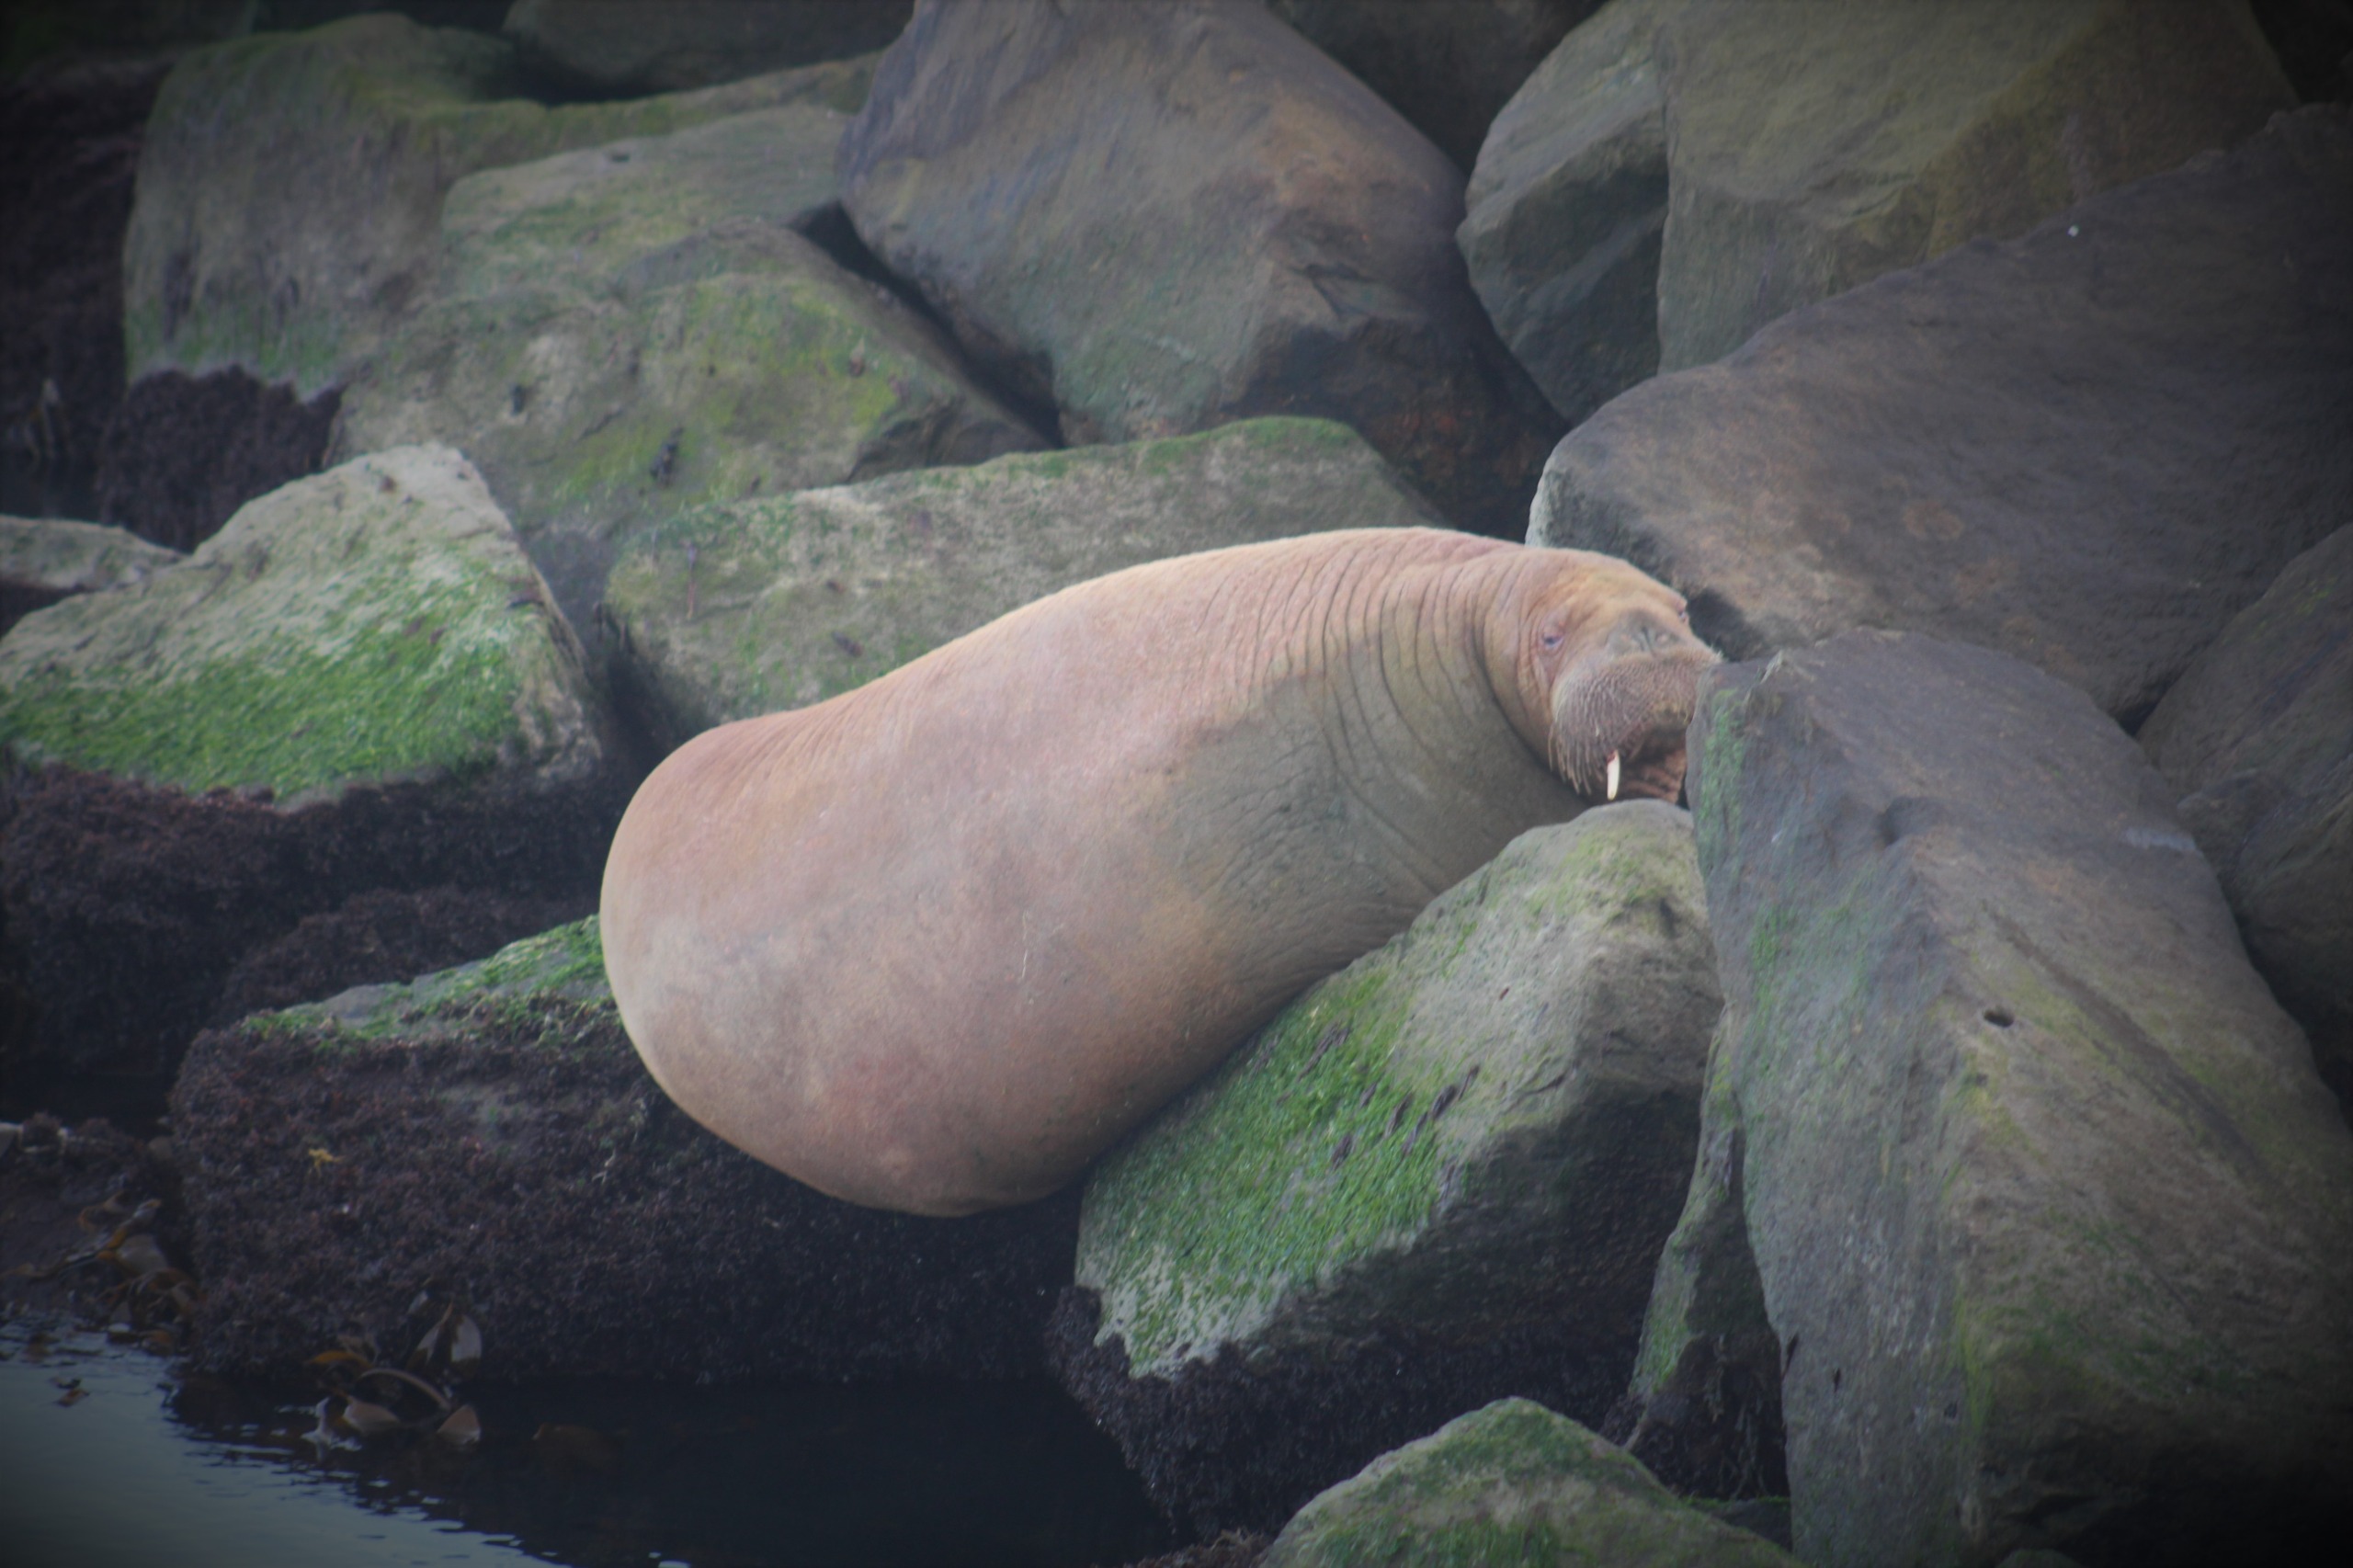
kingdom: Animalia
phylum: Chordata
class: Mammalia
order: Carnivora
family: Odobenidae
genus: Odobenus
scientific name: Odobenus rosmarus
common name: Hvalros
